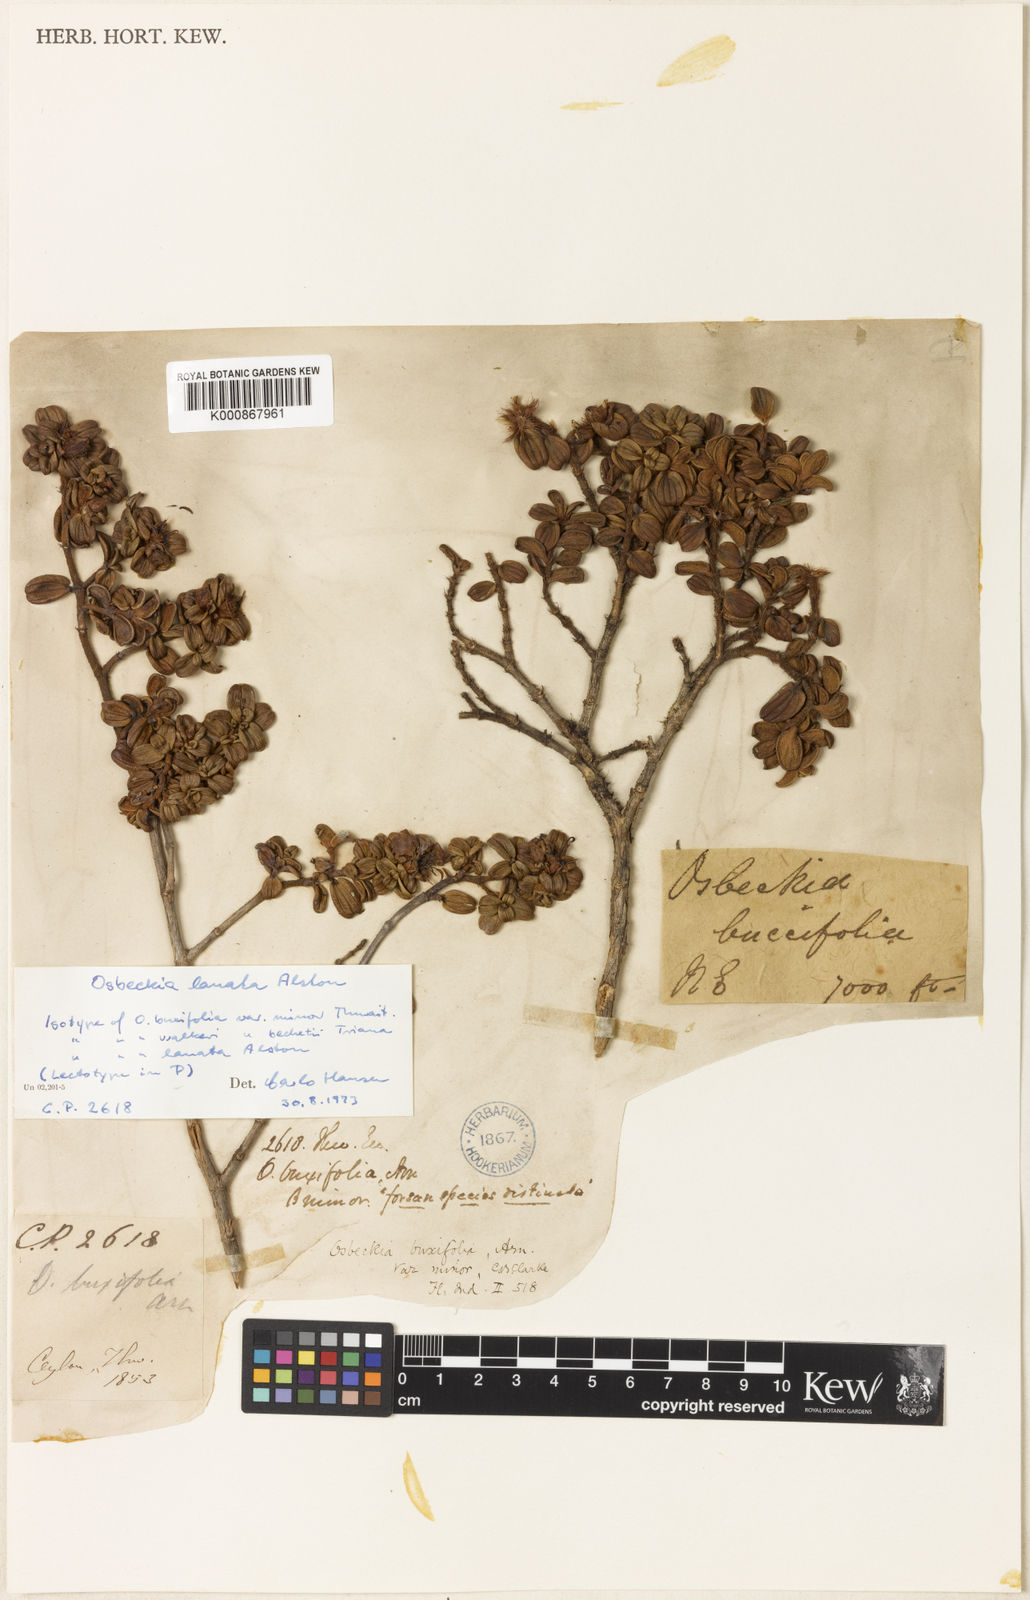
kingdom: Plantae
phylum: Tracheophyta
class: Magnoliopsida
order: Myrtales
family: Melastomataceae
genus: Osbeckia
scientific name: Osbeckia lanata
